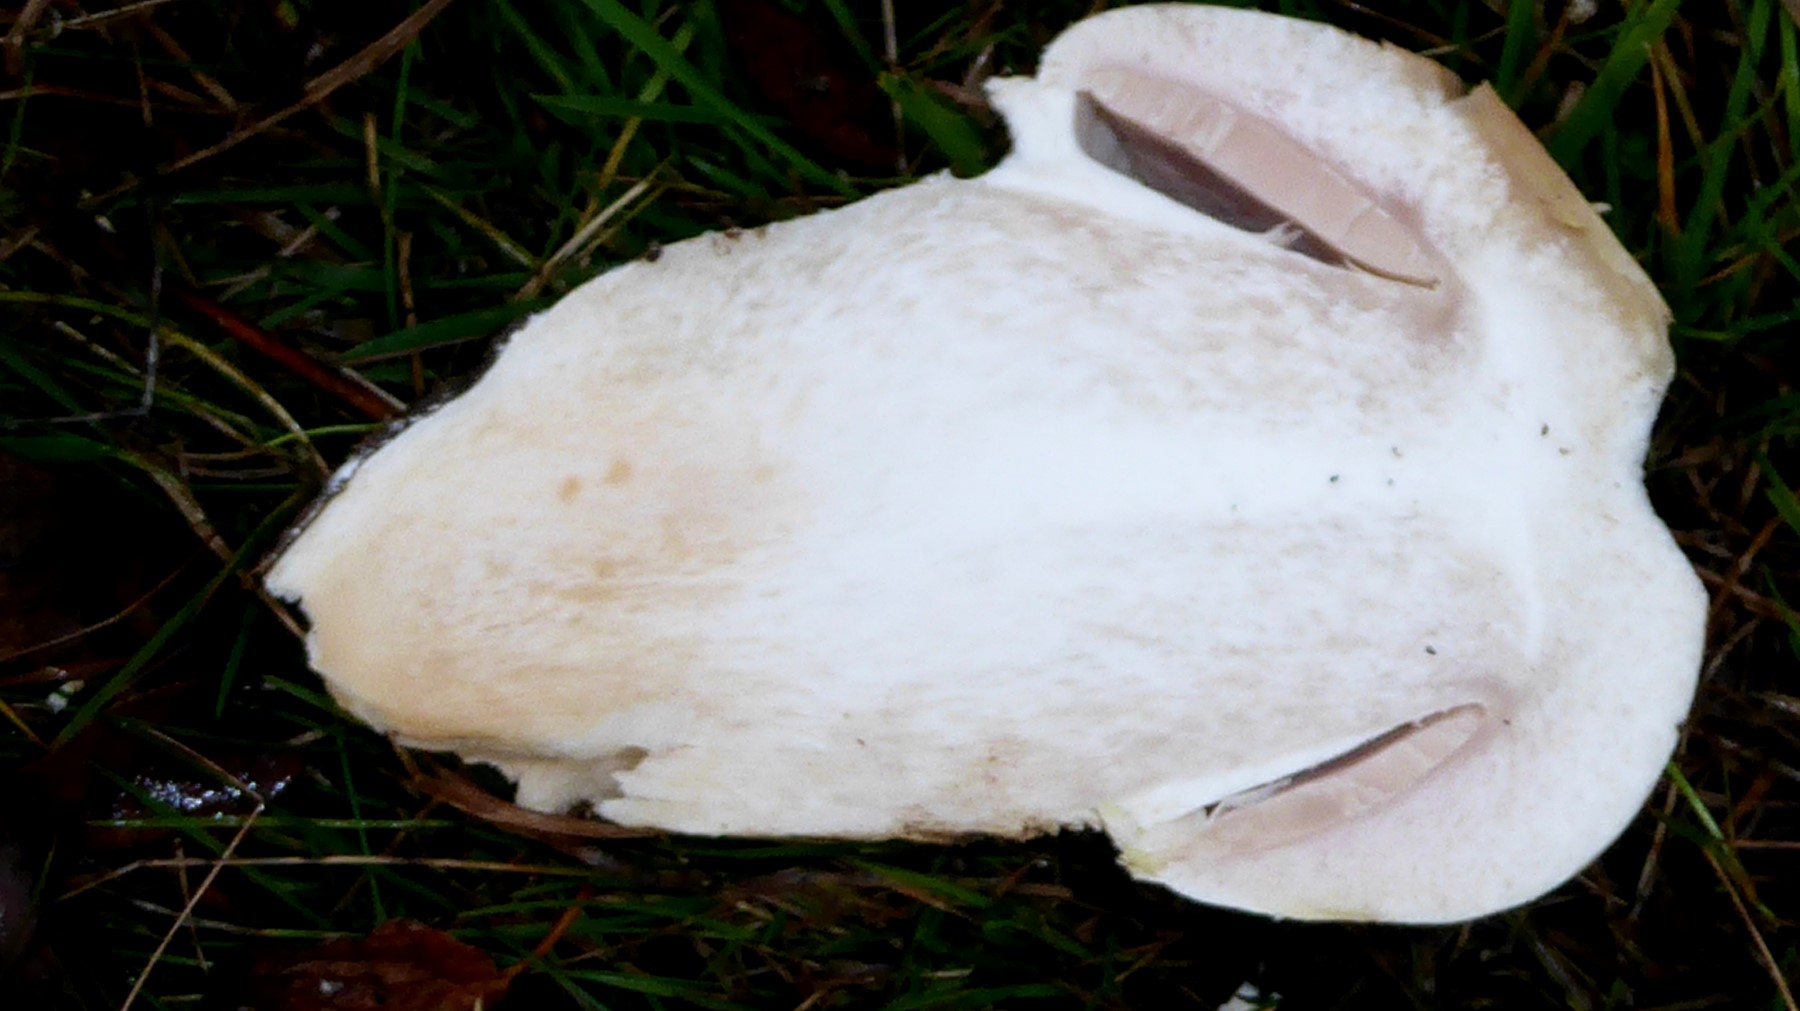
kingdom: Fungi
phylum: Basidiomycota
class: Agaricomycetes
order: Agaricales
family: Agaricaceae
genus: Agaricus
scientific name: Agaricus crocodilinus
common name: landsby-champignon
